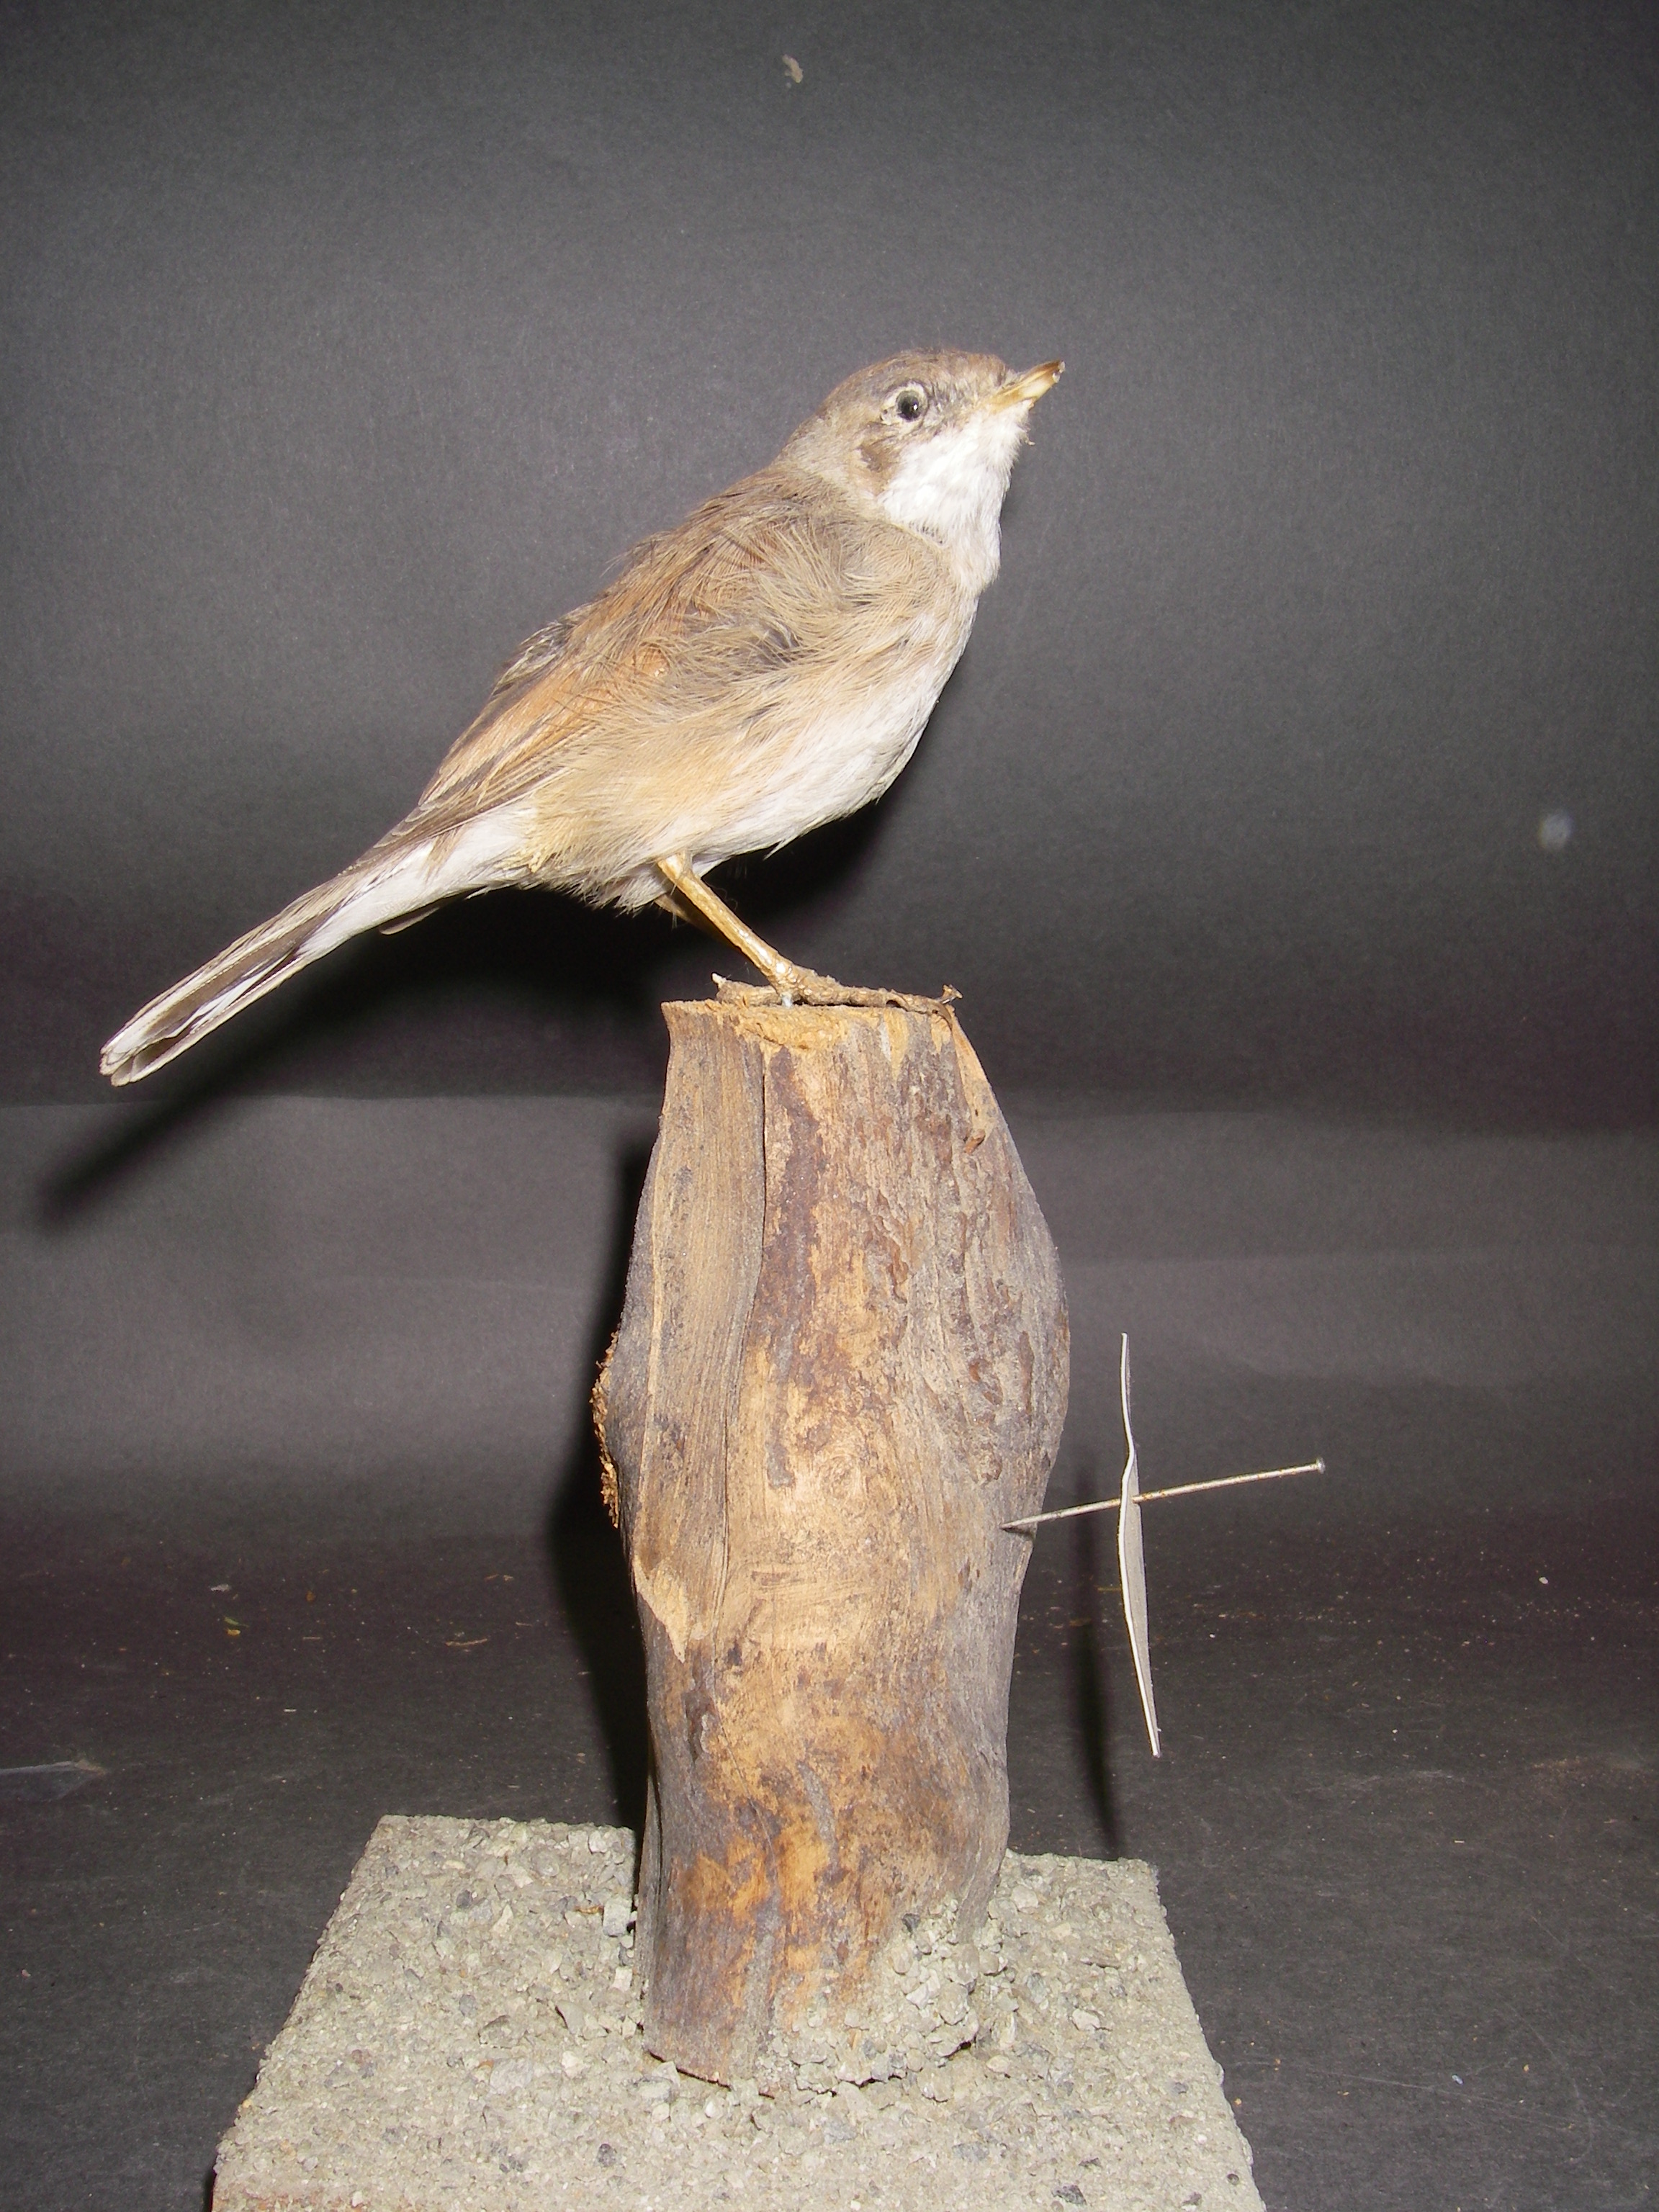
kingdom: Animalia
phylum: Chordata
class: Aves
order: Passeriformes
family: Sylviidae
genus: Sylvia
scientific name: Sylvia conspicillata
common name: Spectacled warbler
